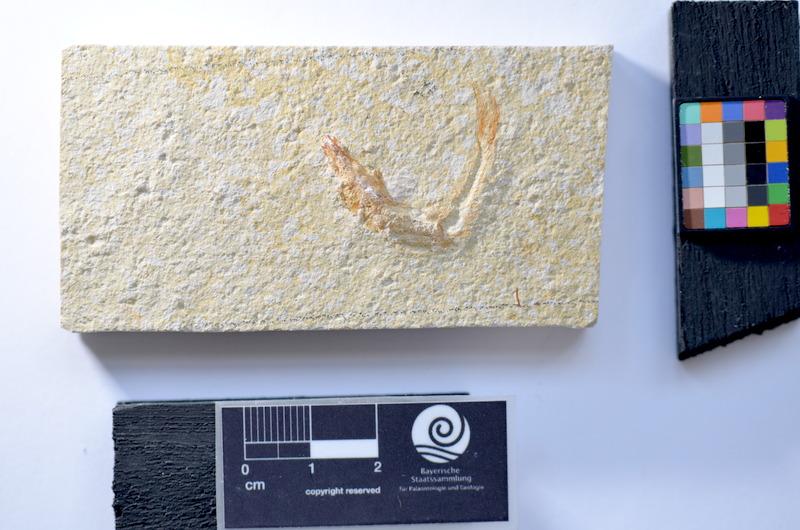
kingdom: Animalia
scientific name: Animalia
